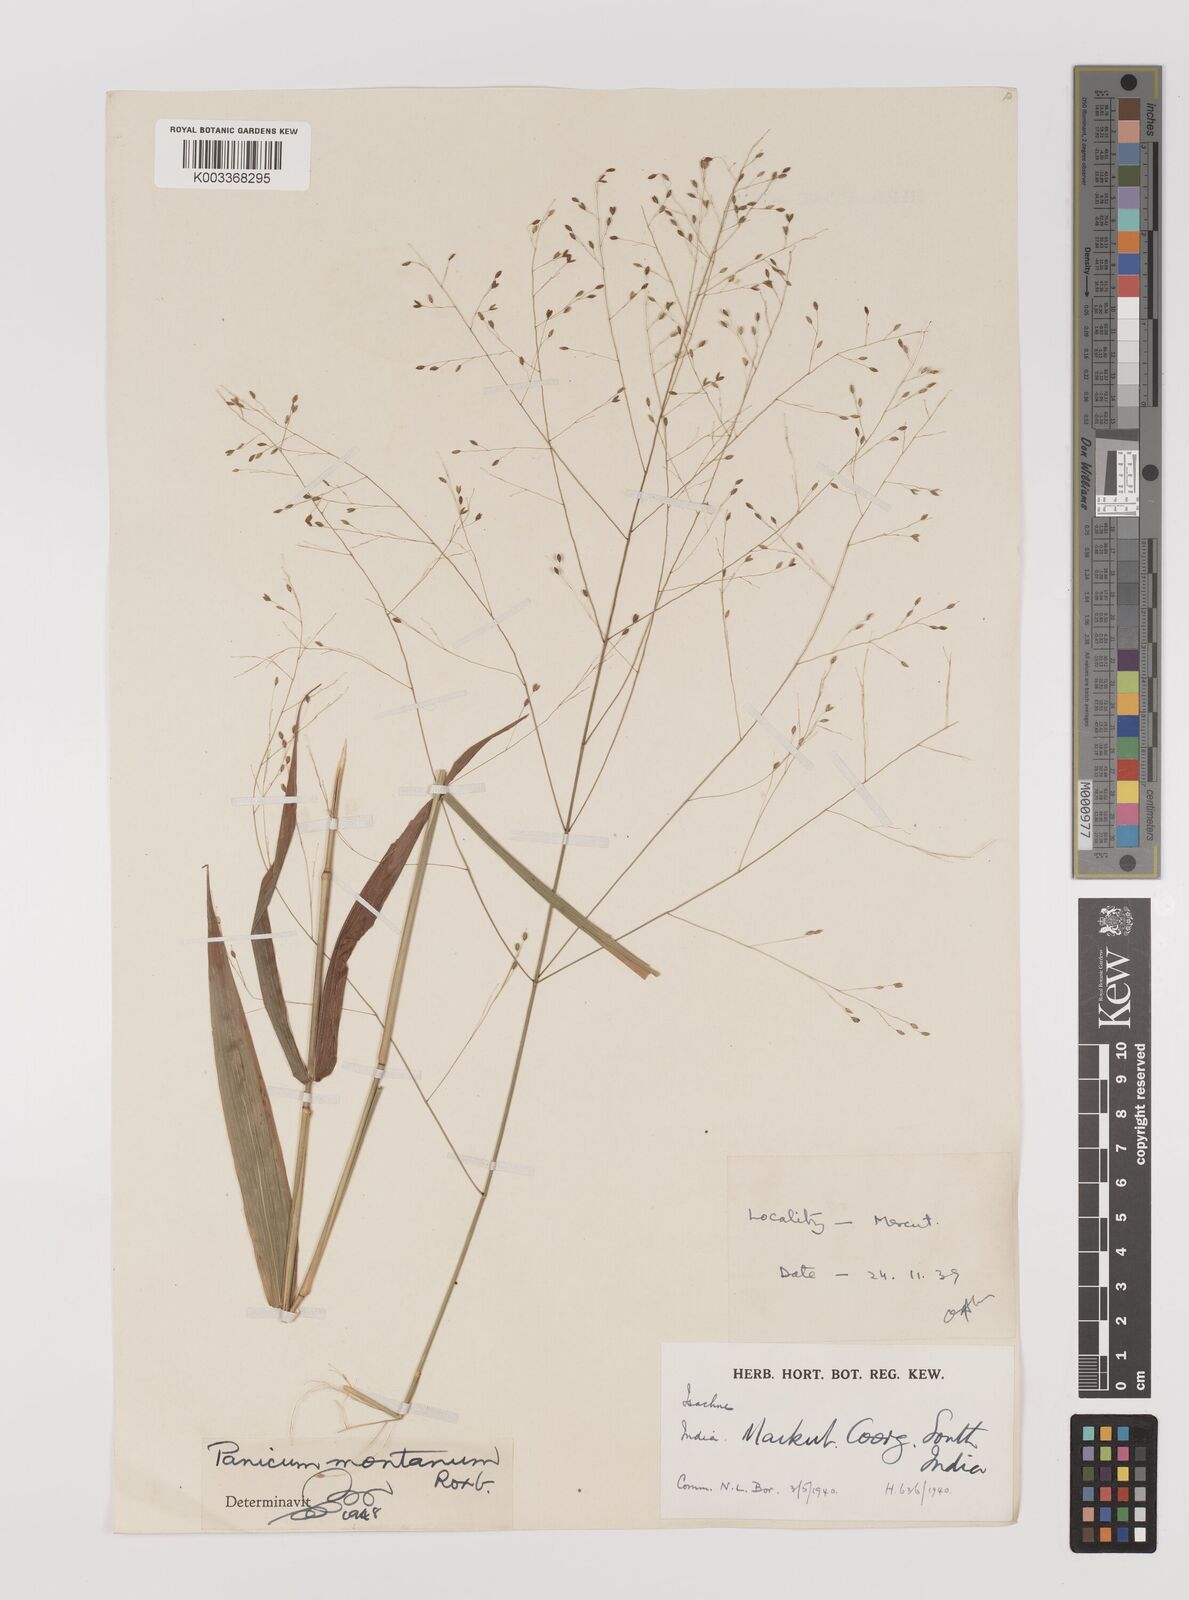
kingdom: Plantae
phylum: Tracheophyta
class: Liliopsida
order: Poales
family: Poaceae
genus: Panicum
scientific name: Panicum notatum
